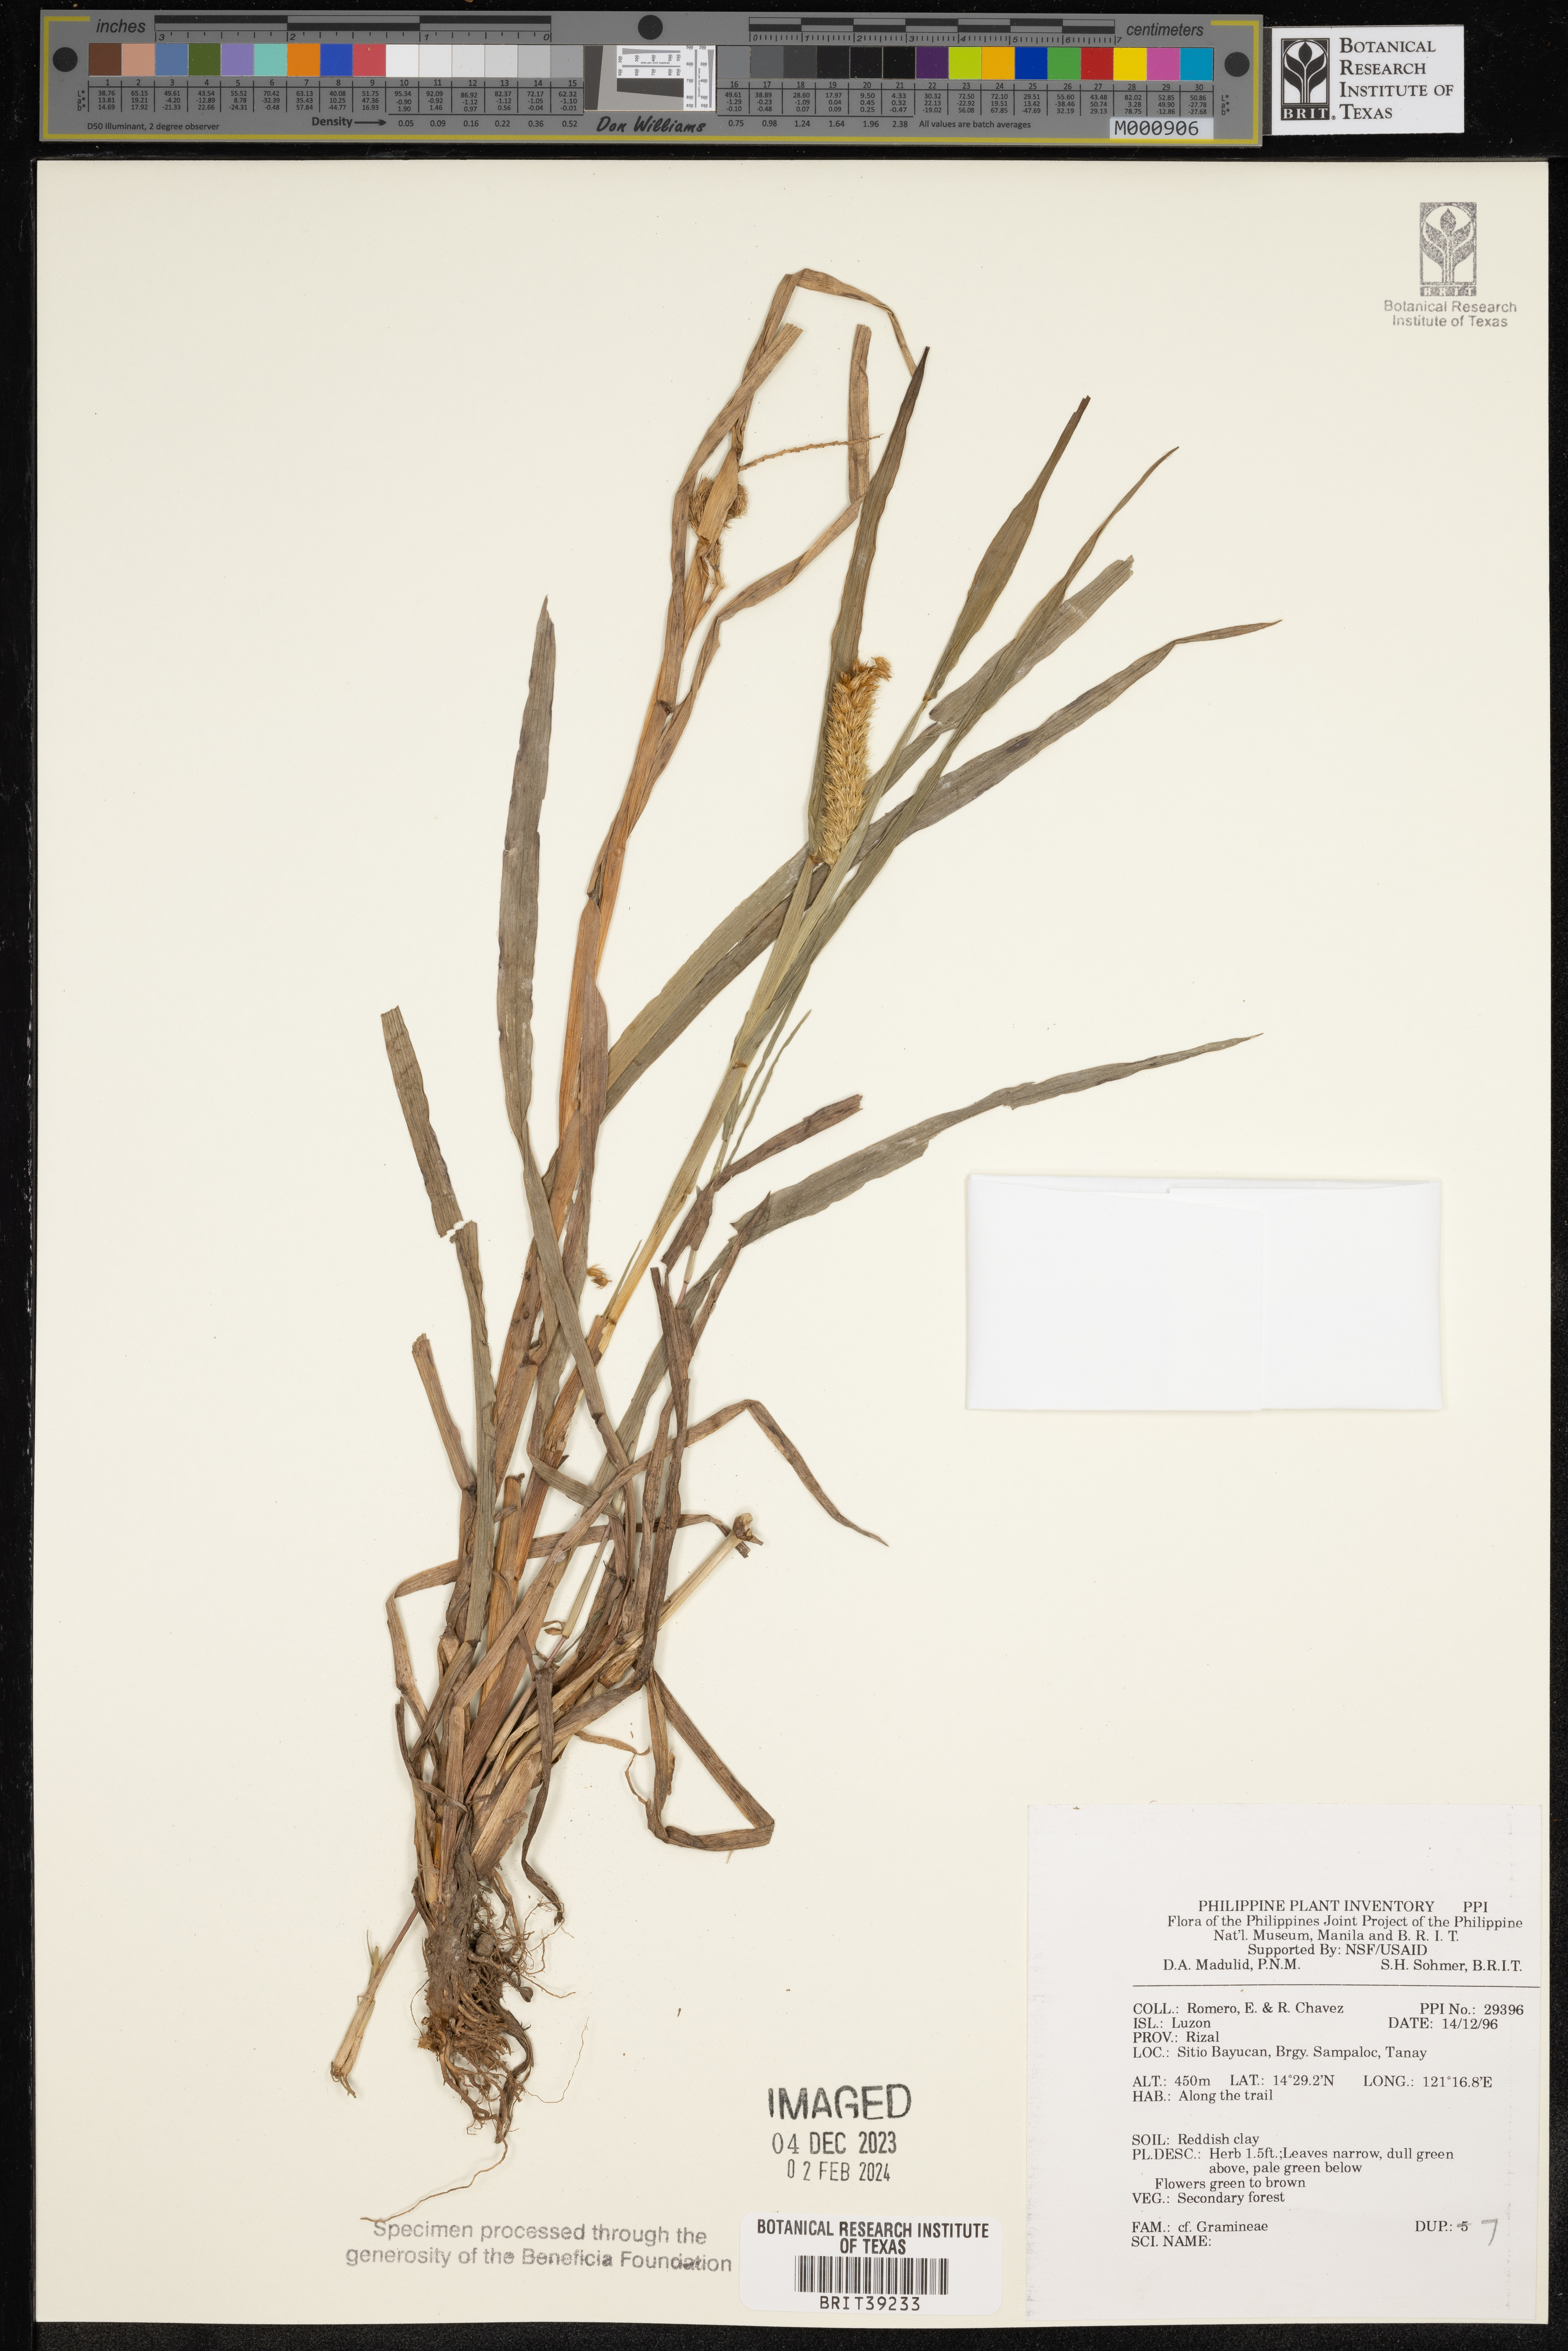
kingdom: Plantae
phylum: Tracheophyta
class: Liliopsida
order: Poales
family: Poaceae
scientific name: Poaceae
